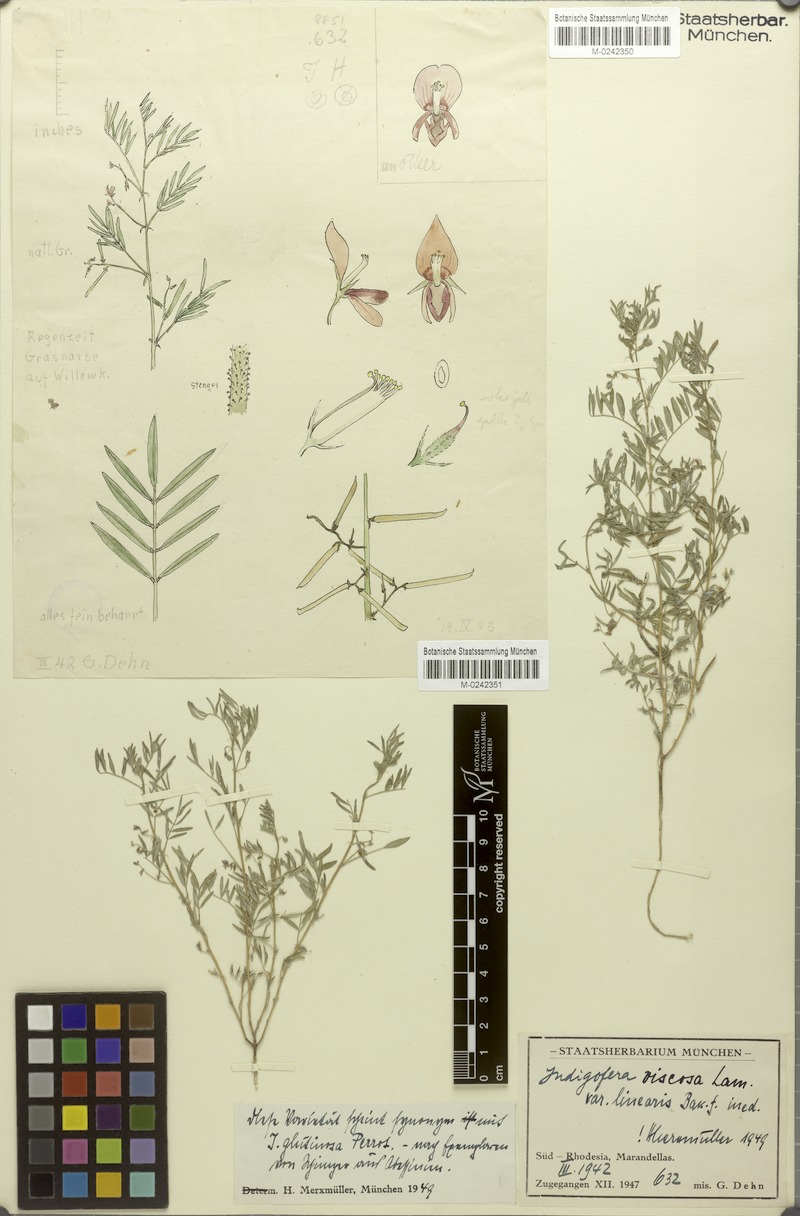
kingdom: Plantae
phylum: Tracheophyta
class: Magnoliopsida
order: Fabales
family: Fabaceae
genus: Indigofera
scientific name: Indigofera brachynema
